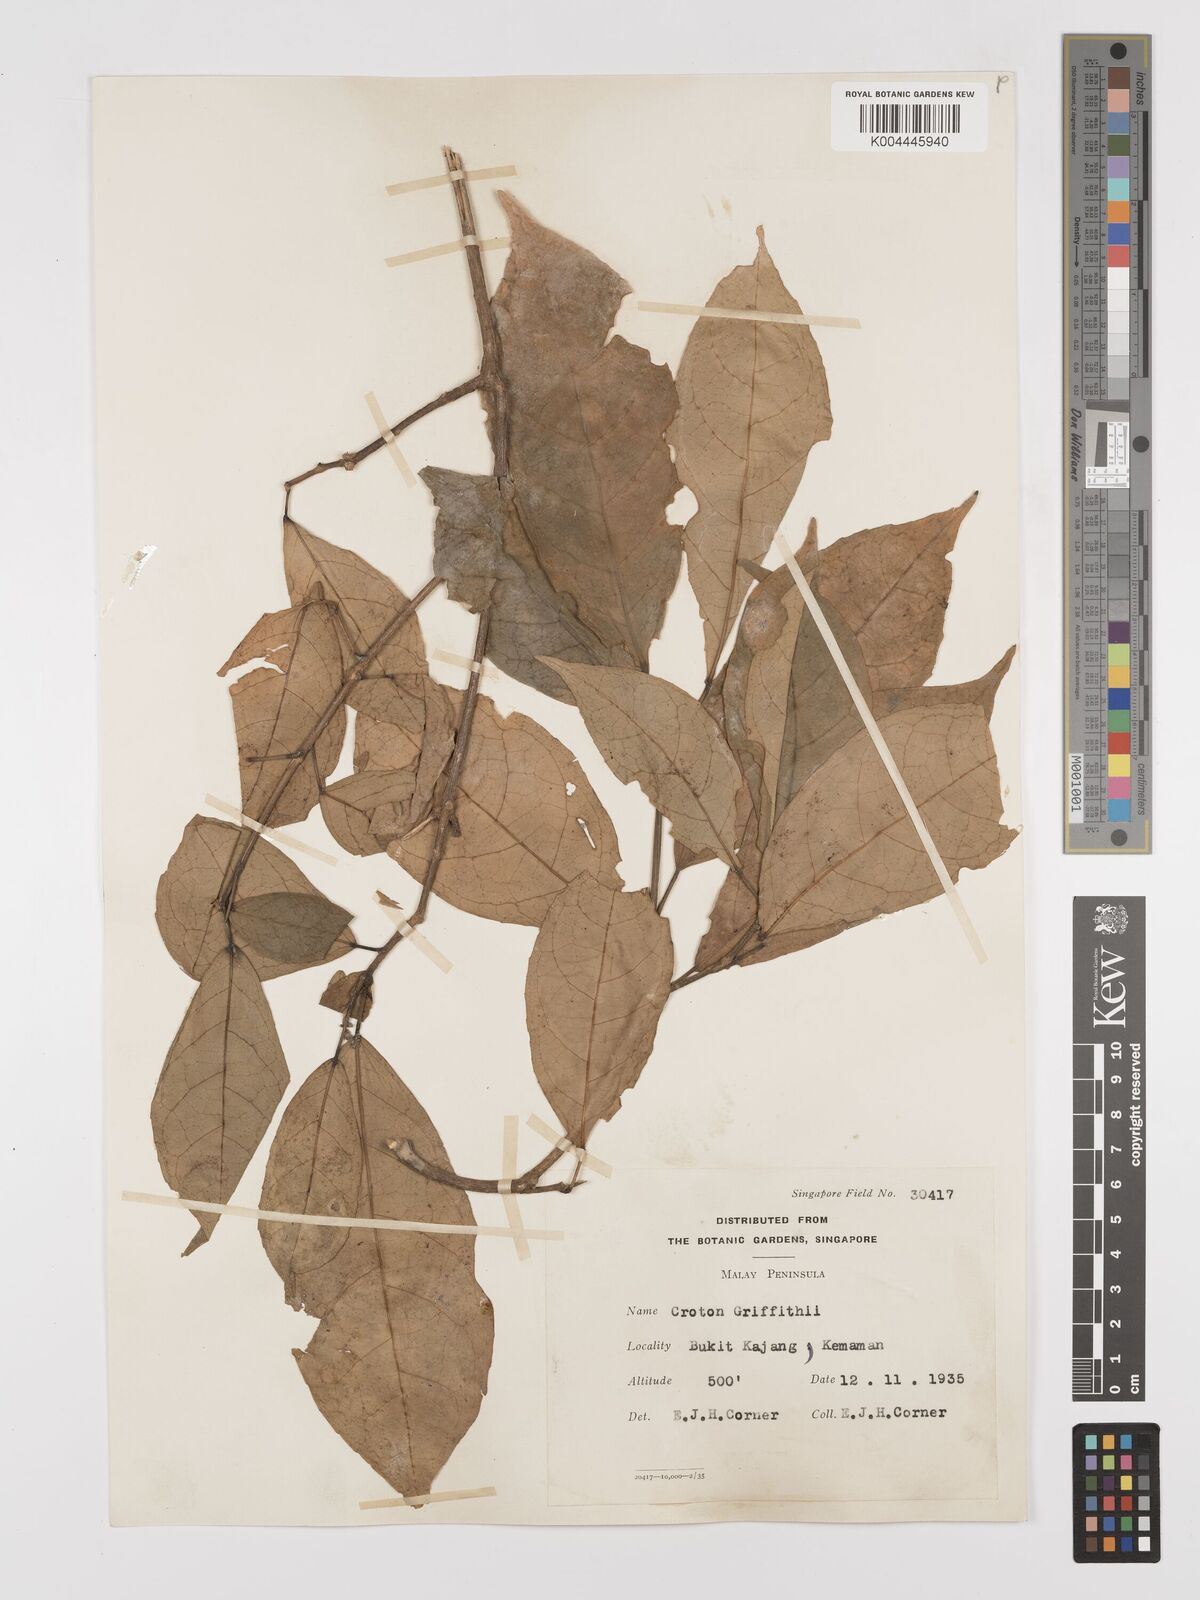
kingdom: Plantae
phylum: Tracheophyta
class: Magnoliopsida
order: Malpighiales
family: Euphorbiaceae
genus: Croton
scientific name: Croton griffithii
